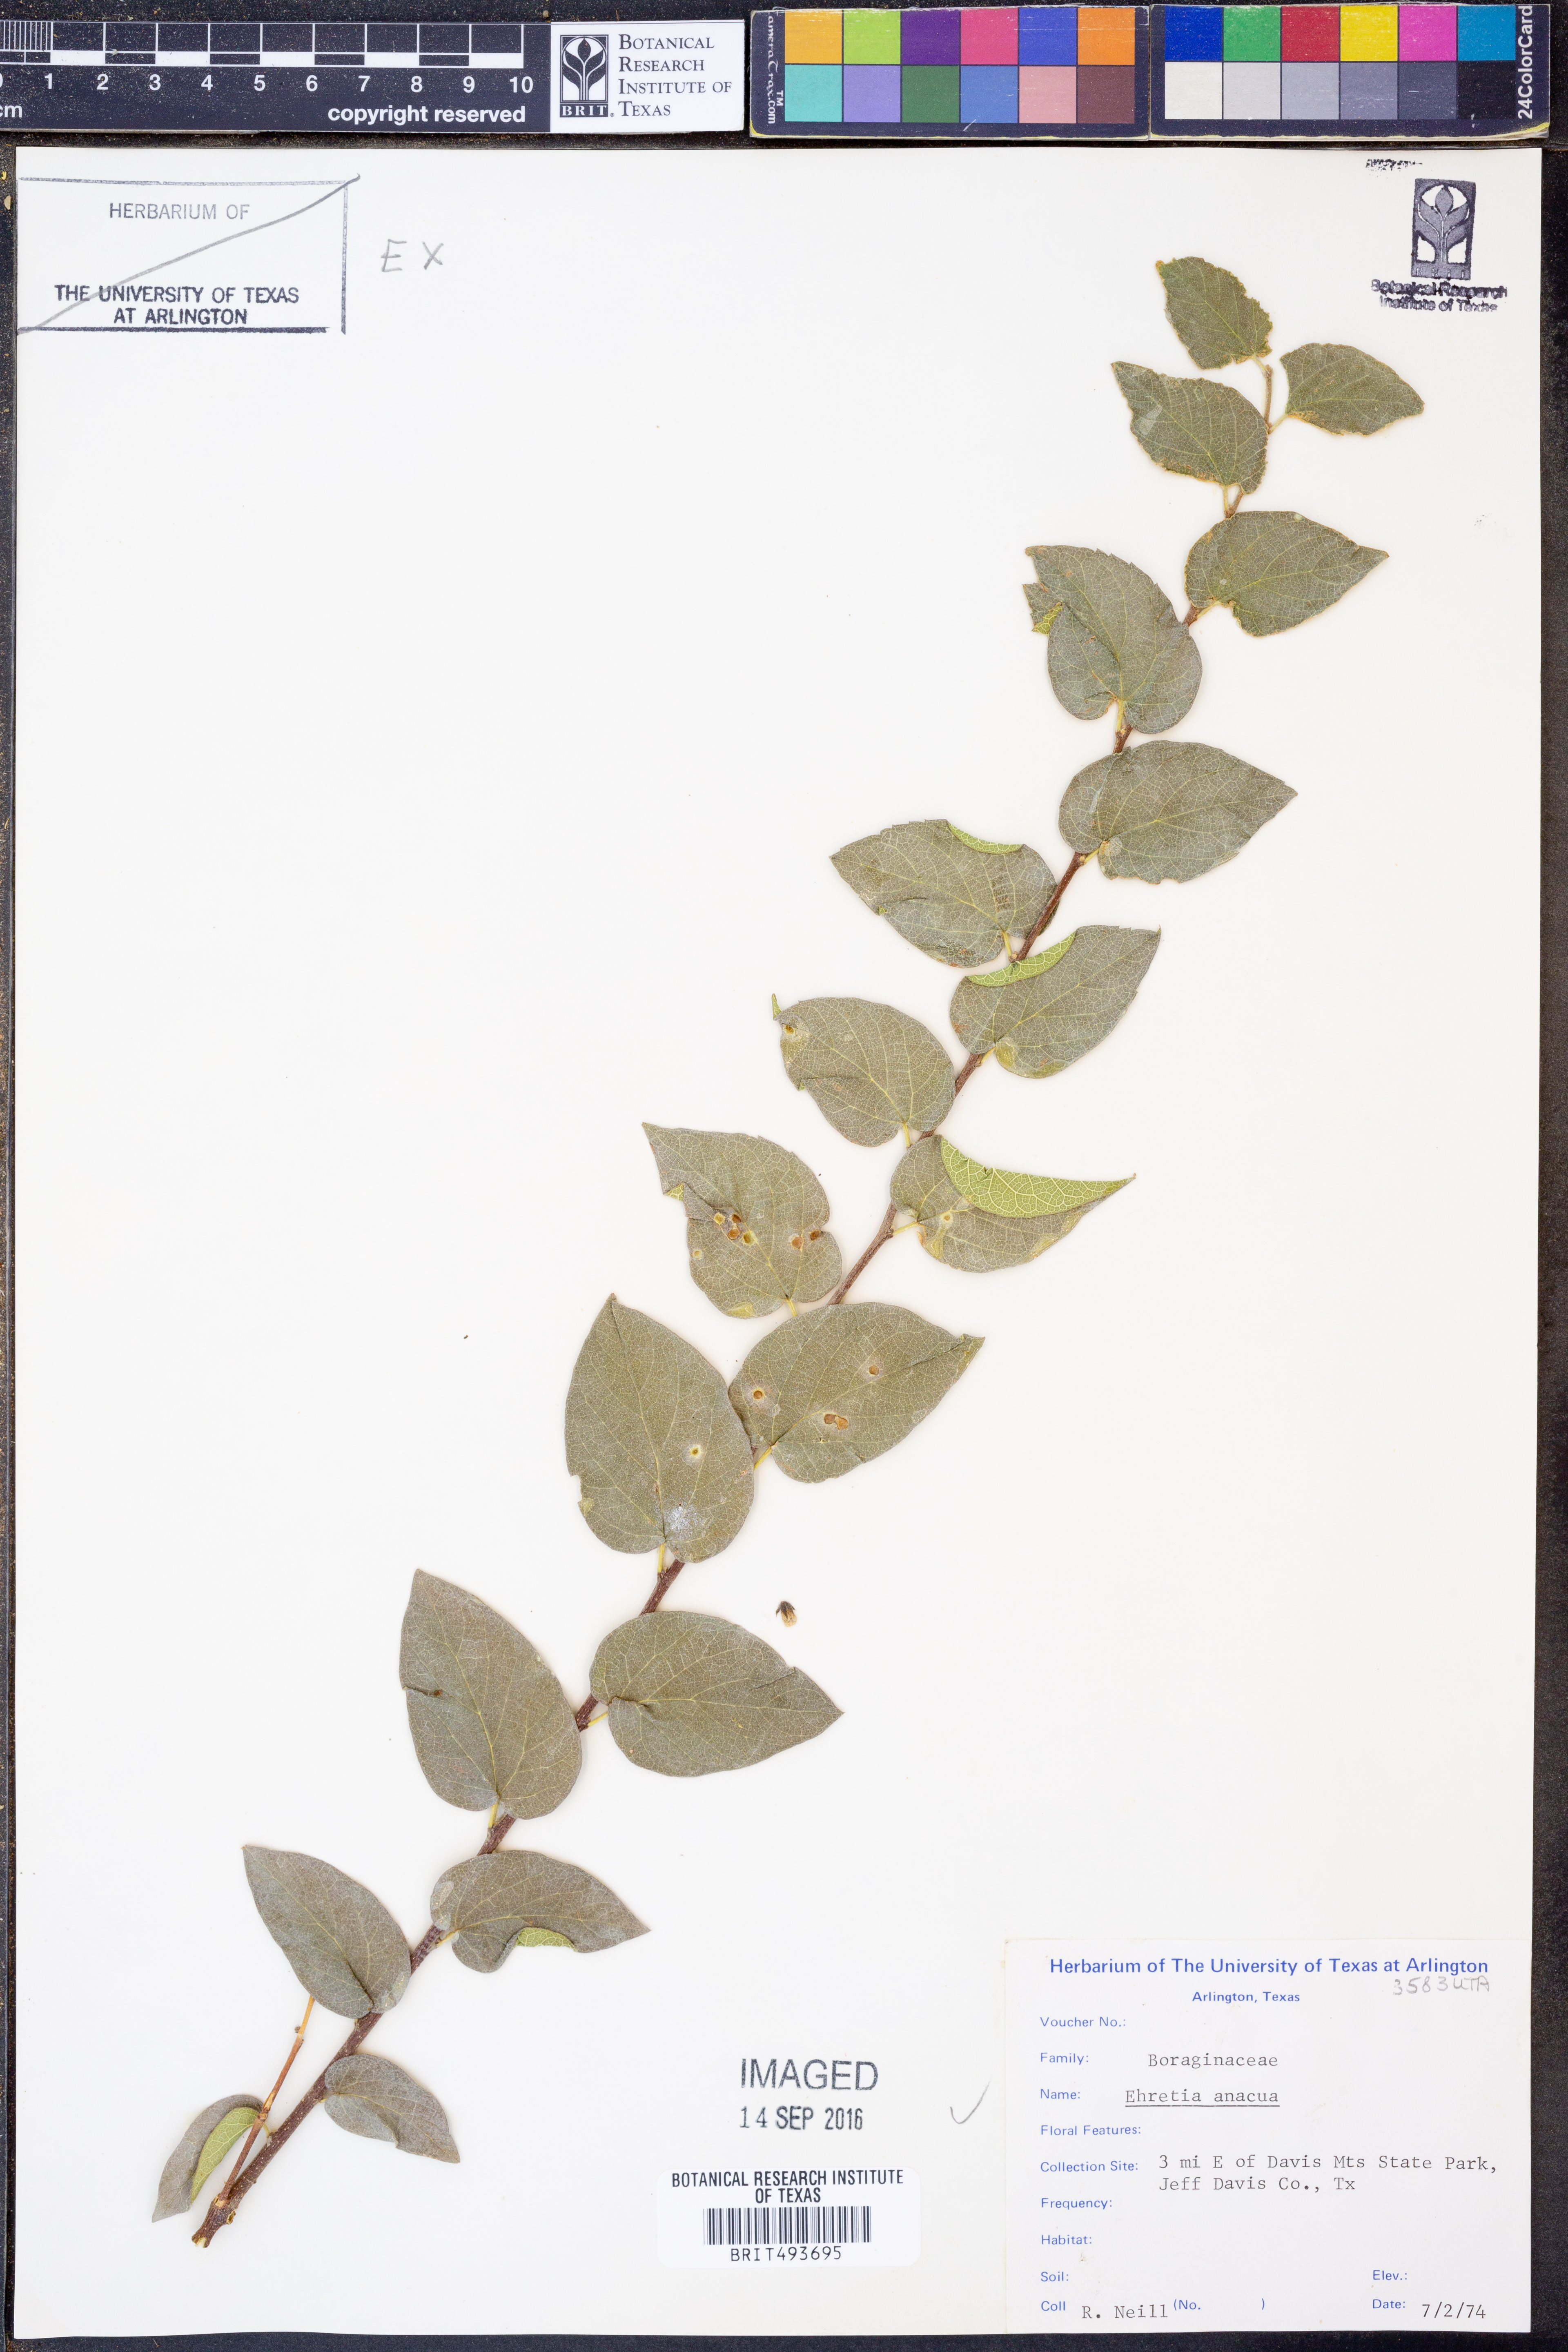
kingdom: Plantae
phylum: Tracheophyta
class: Magnoliopsida
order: Boraginales
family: Ehretiaceae
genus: Ehretia
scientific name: Ehretia anacua
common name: Sugarberry
